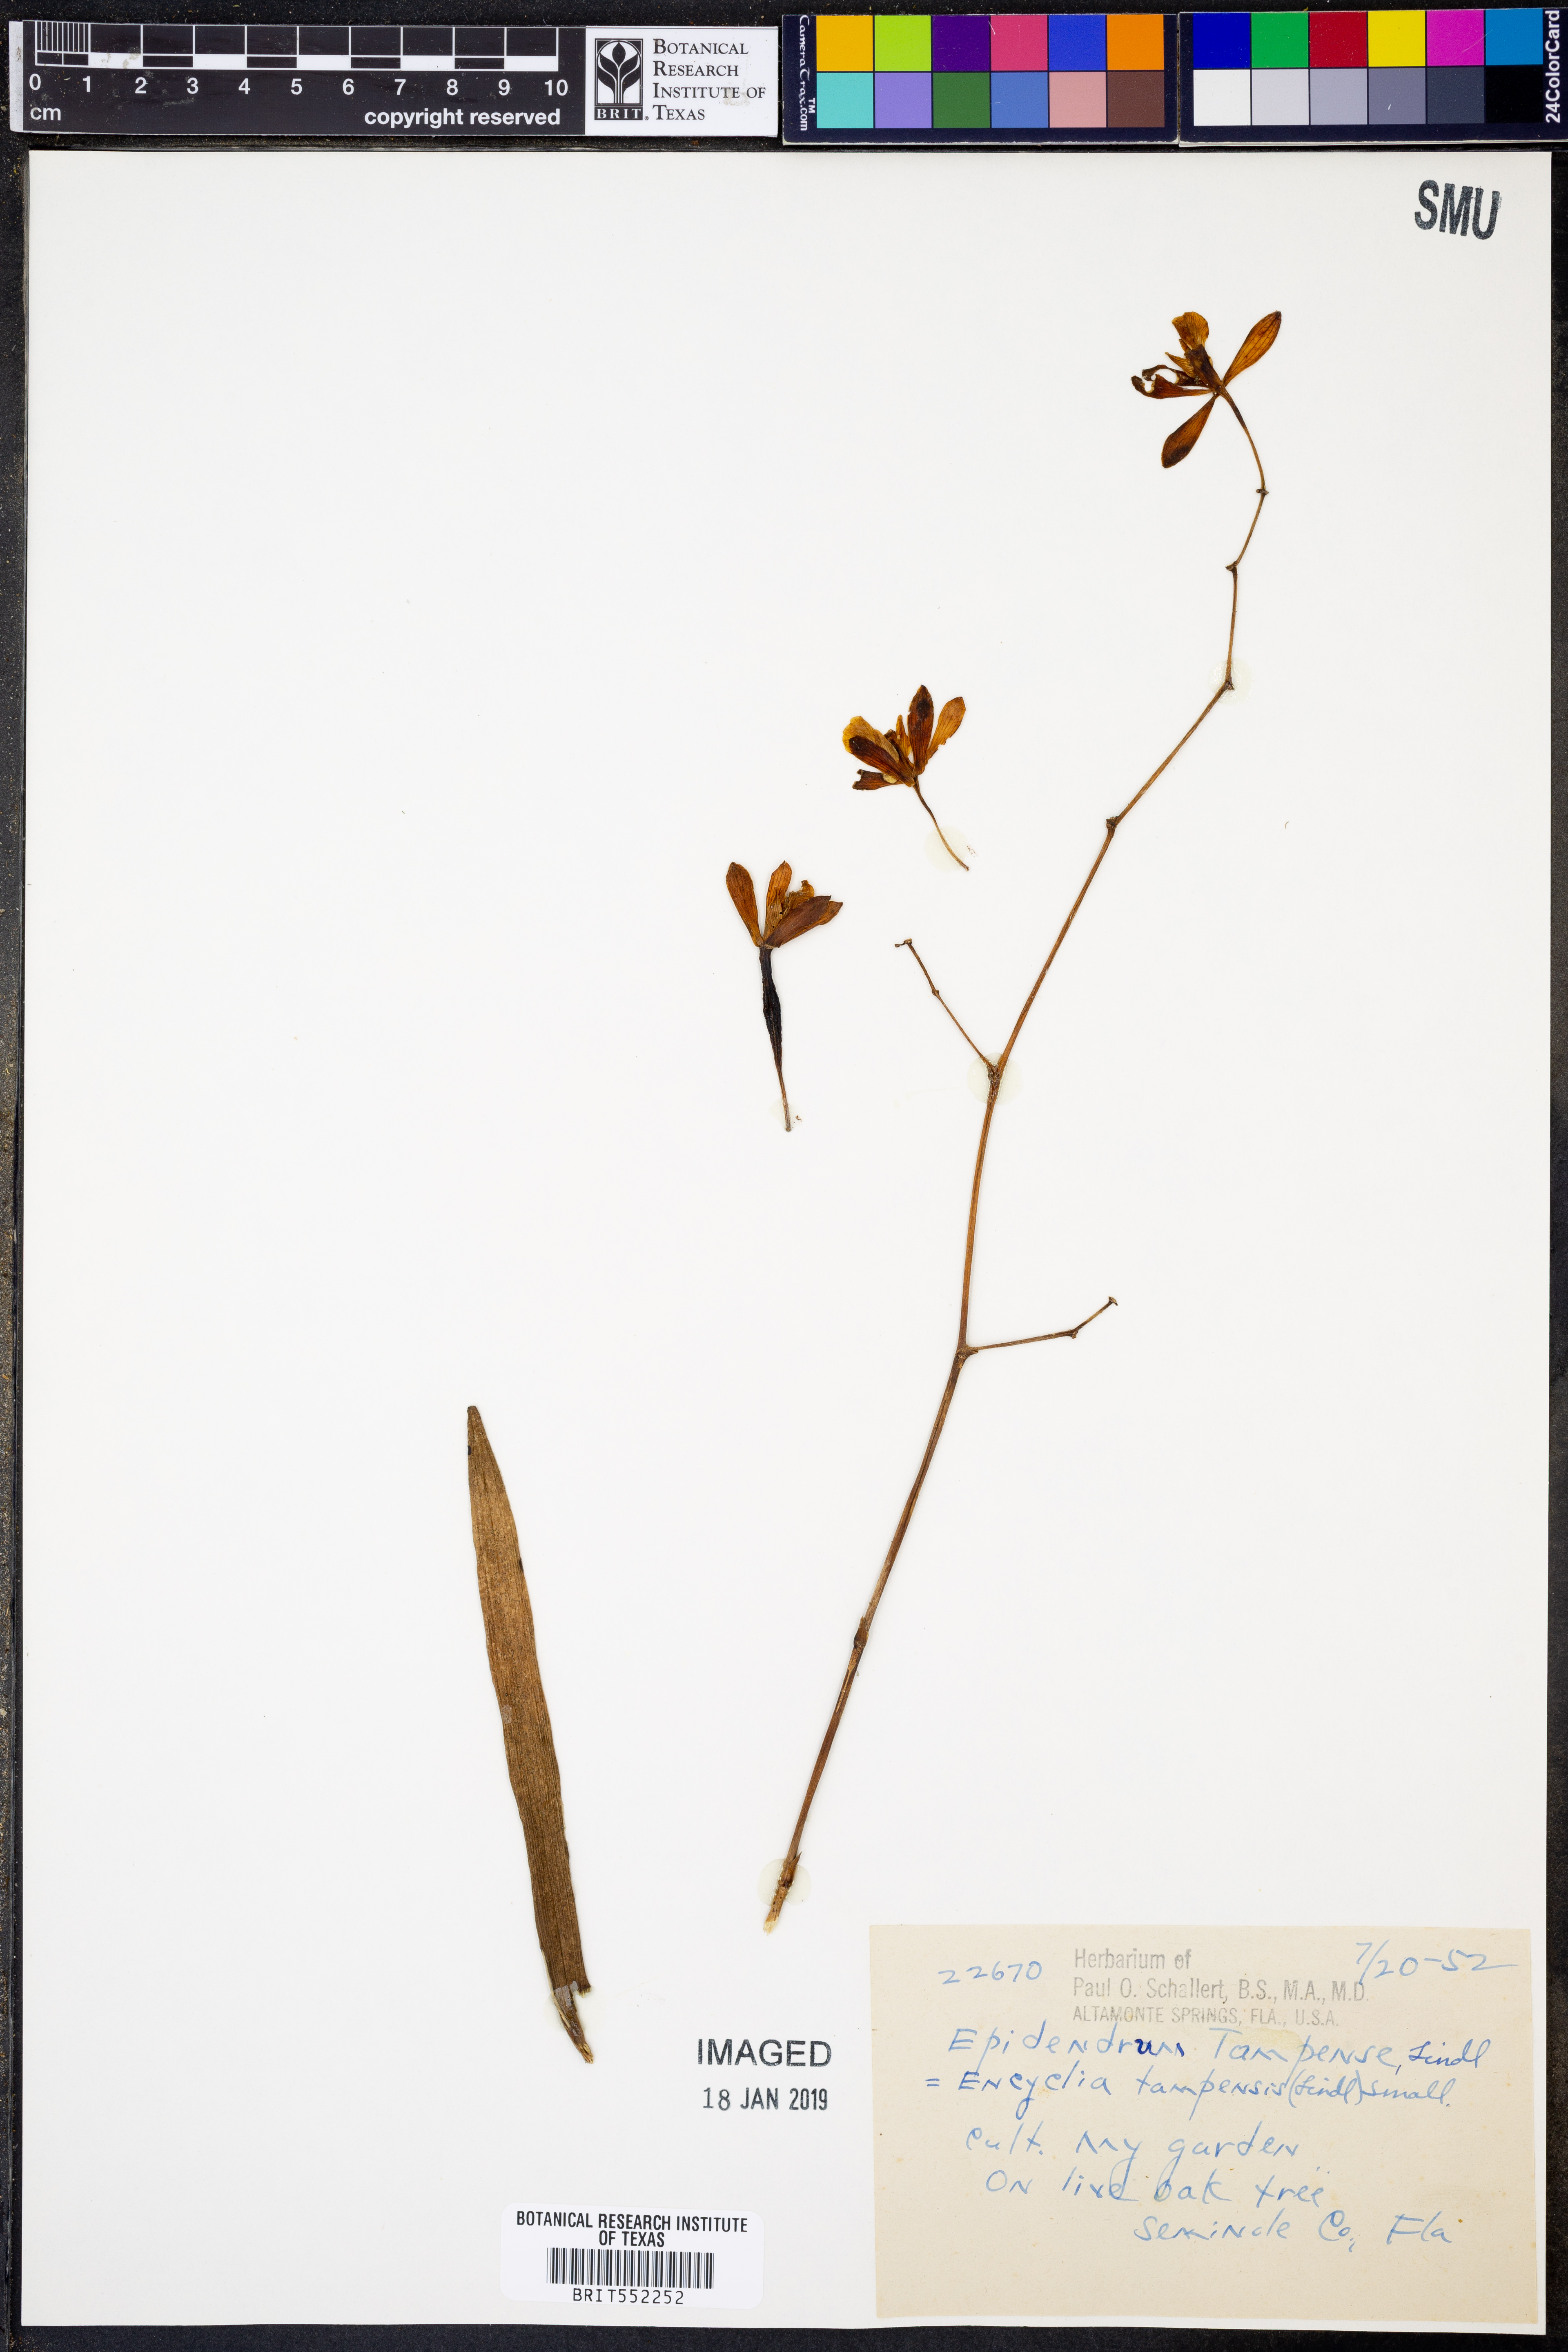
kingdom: Plantae
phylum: Tracheophyta
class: Liliopsida
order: Asparagales
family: Orchidaceae
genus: Encyclia
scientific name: Encyclia tampensis
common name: Florida butterfly orchid
